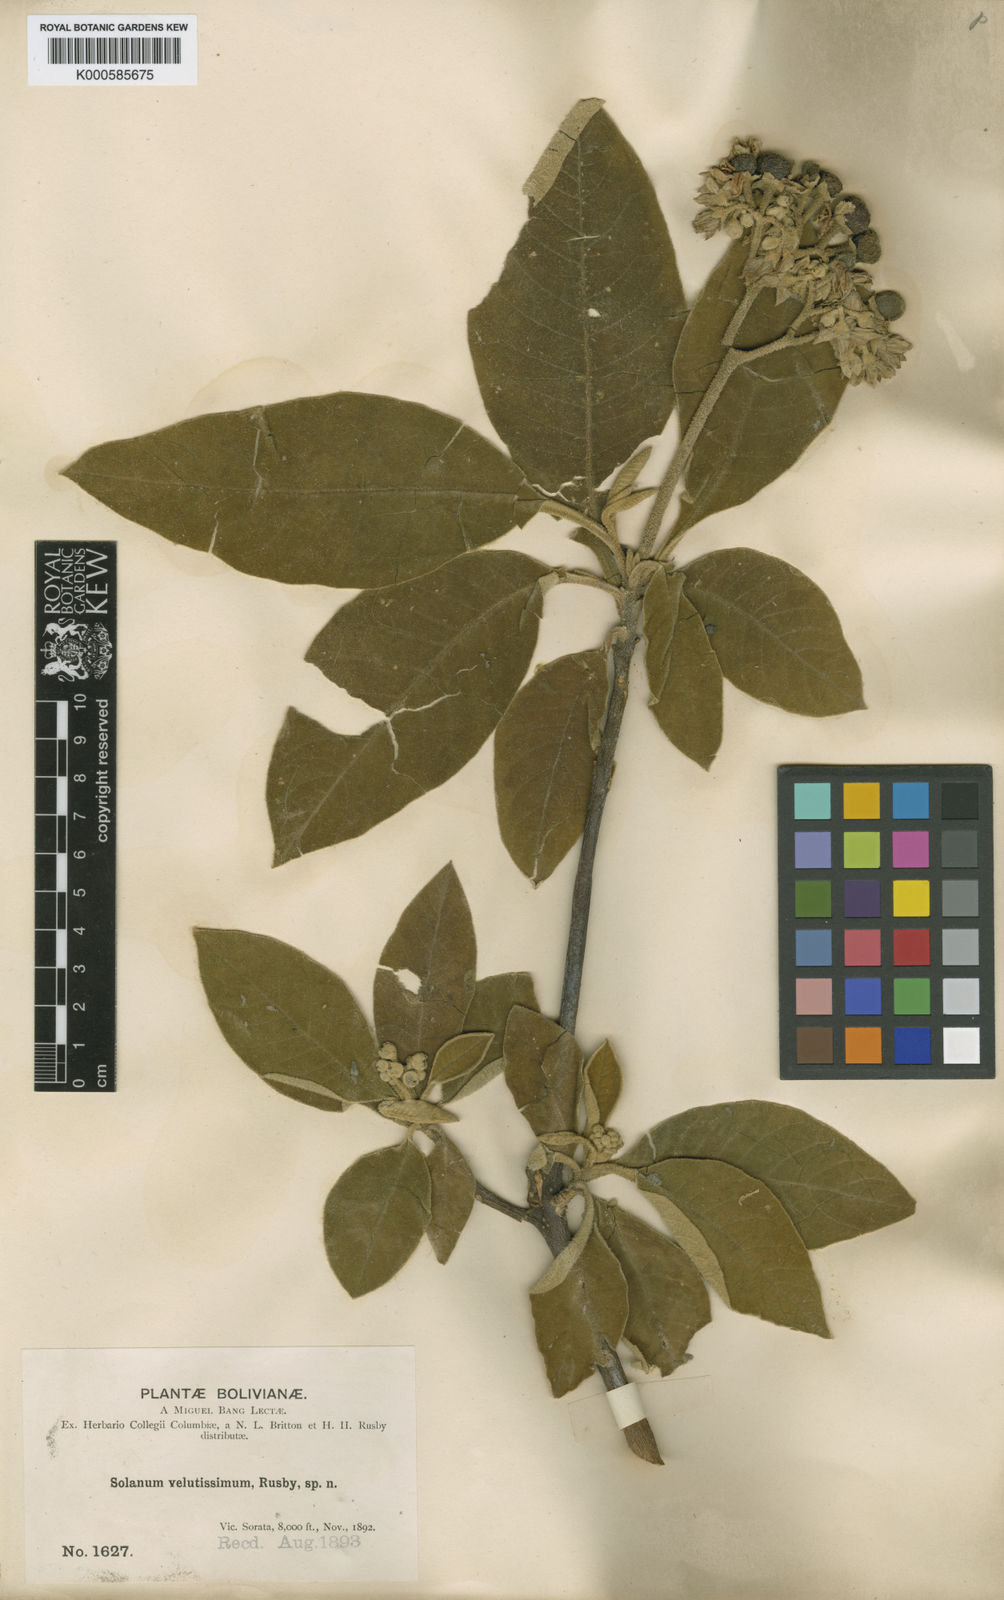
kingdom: Plantae
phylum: Tracheophyta
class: Magnoliopsida
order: Solanales
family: Solanaceae
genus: Solanum
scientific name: Solanum velutissimum
